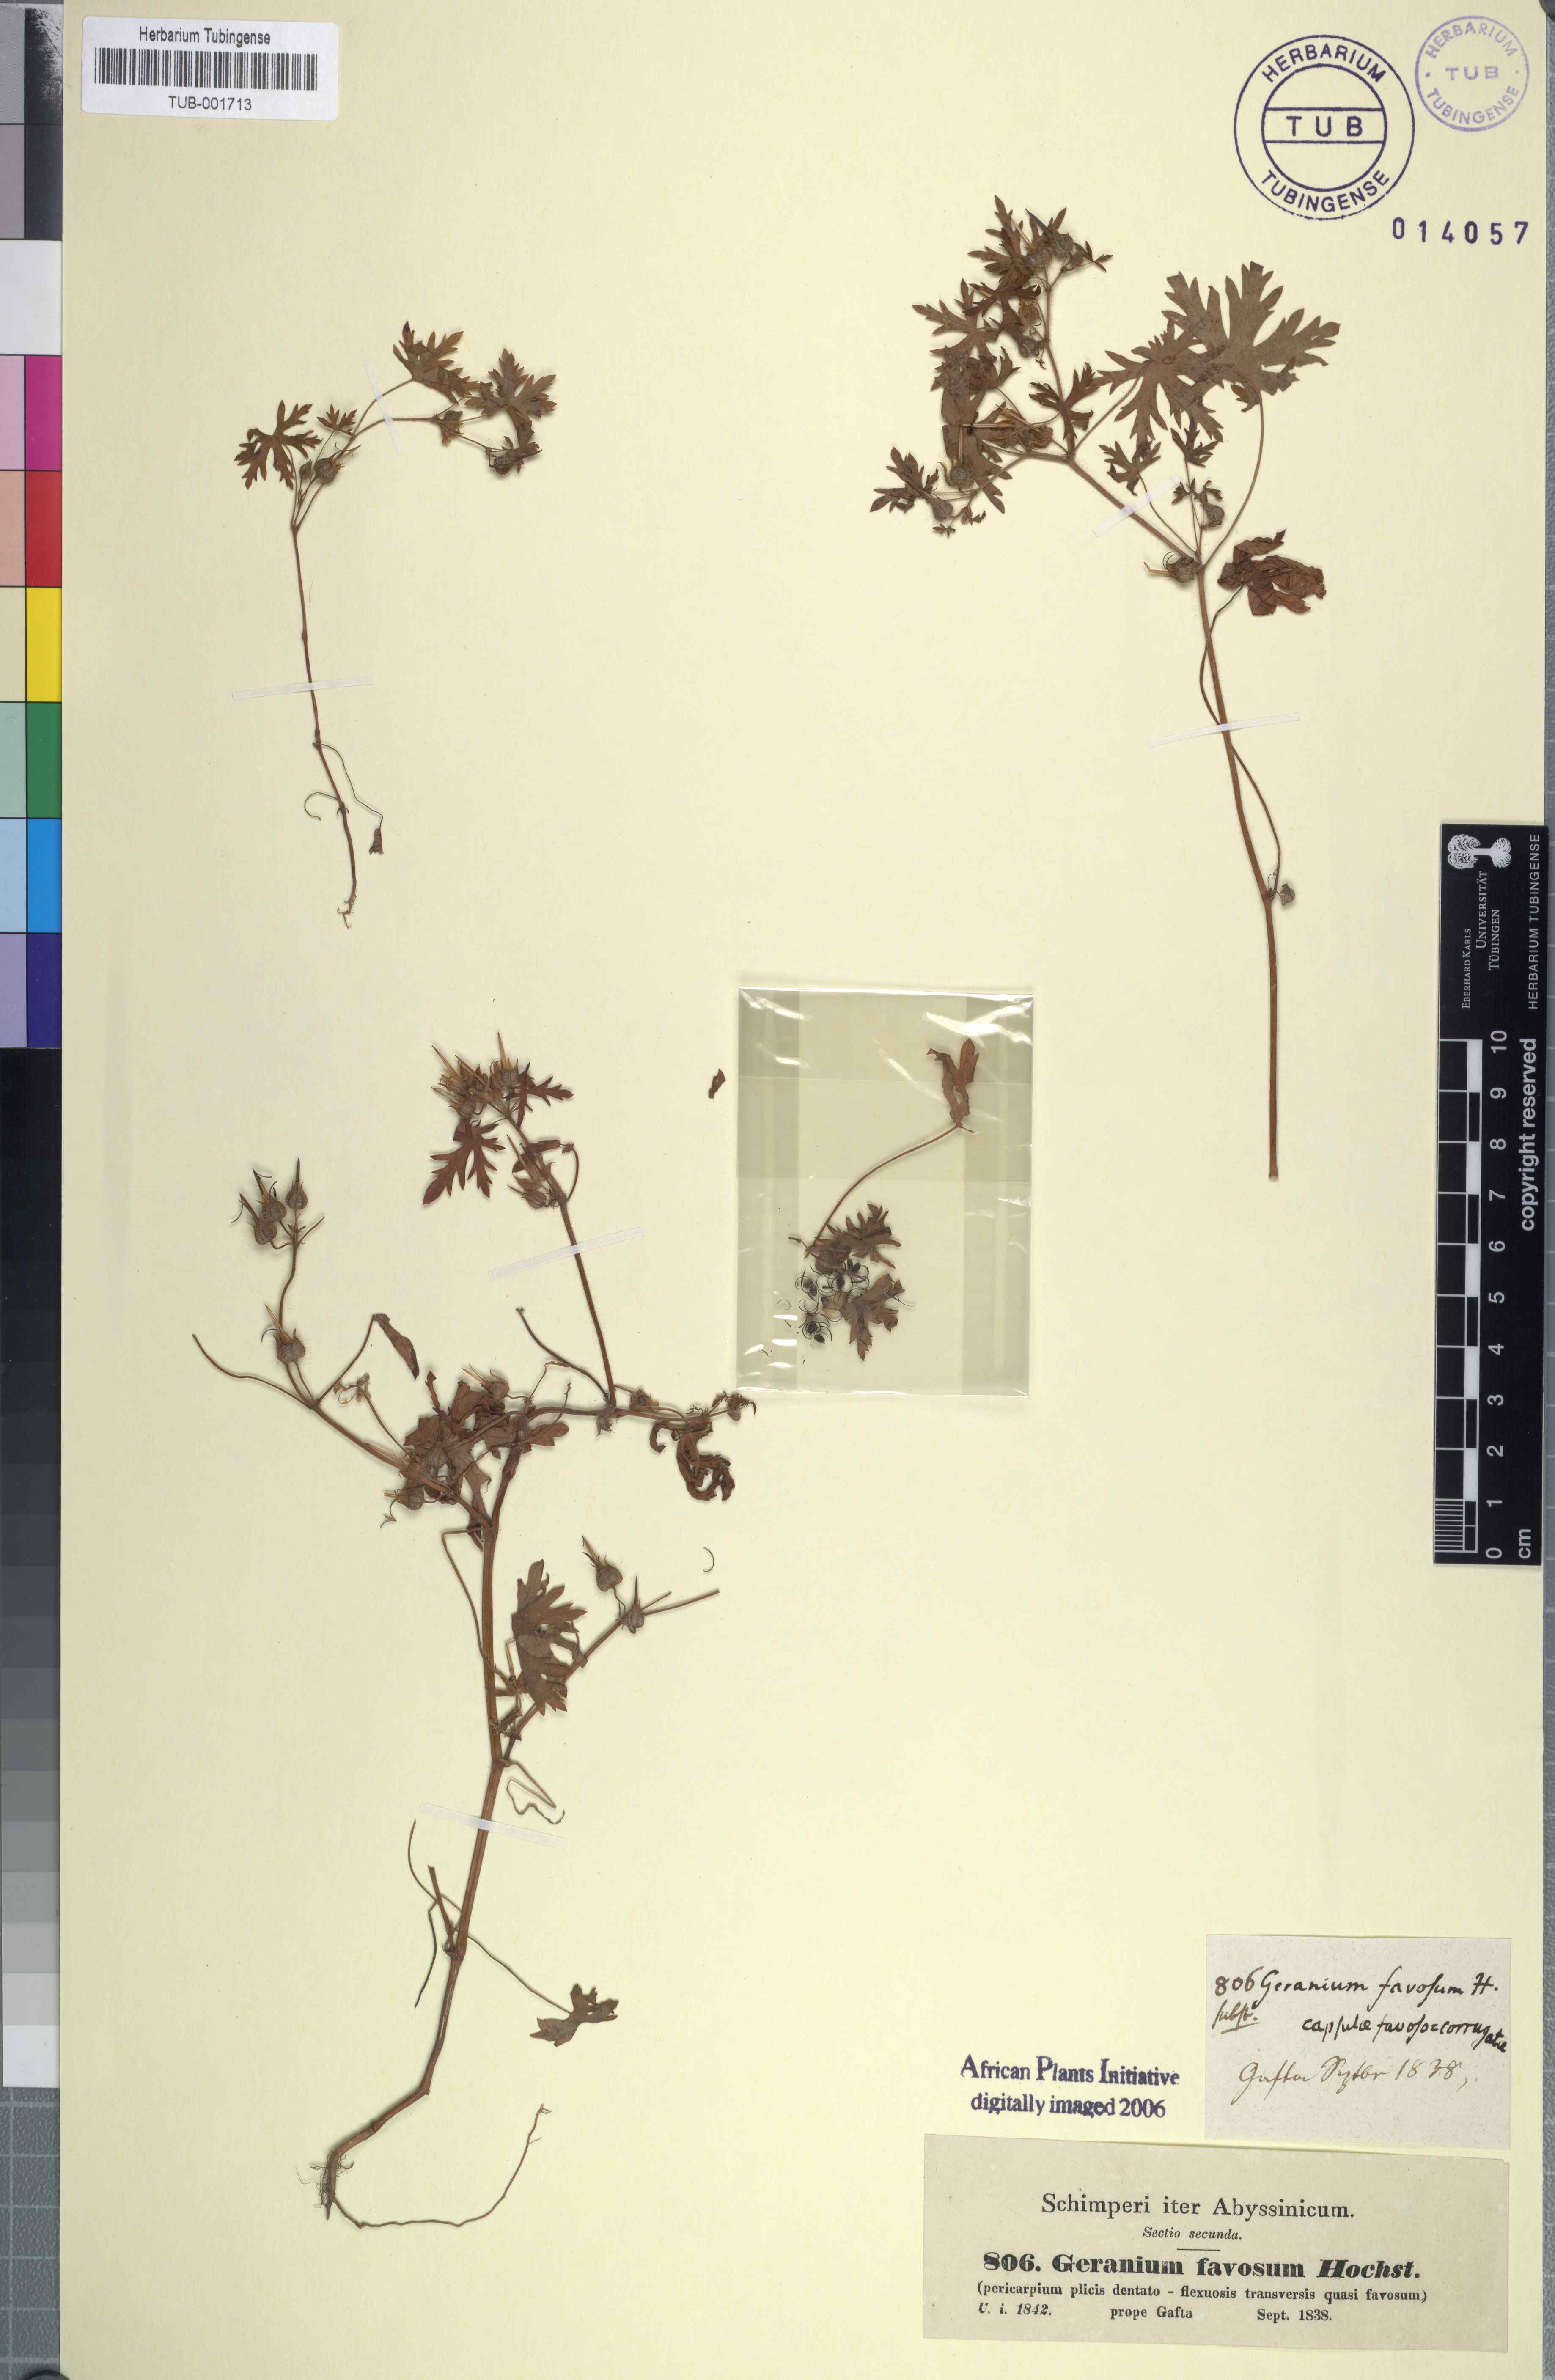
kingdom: Plantae
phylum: Tracheophyta
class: Magnoliopsida
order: Geraniales
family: Geraniaceae
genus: Geranium
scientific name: Geranium favosum
